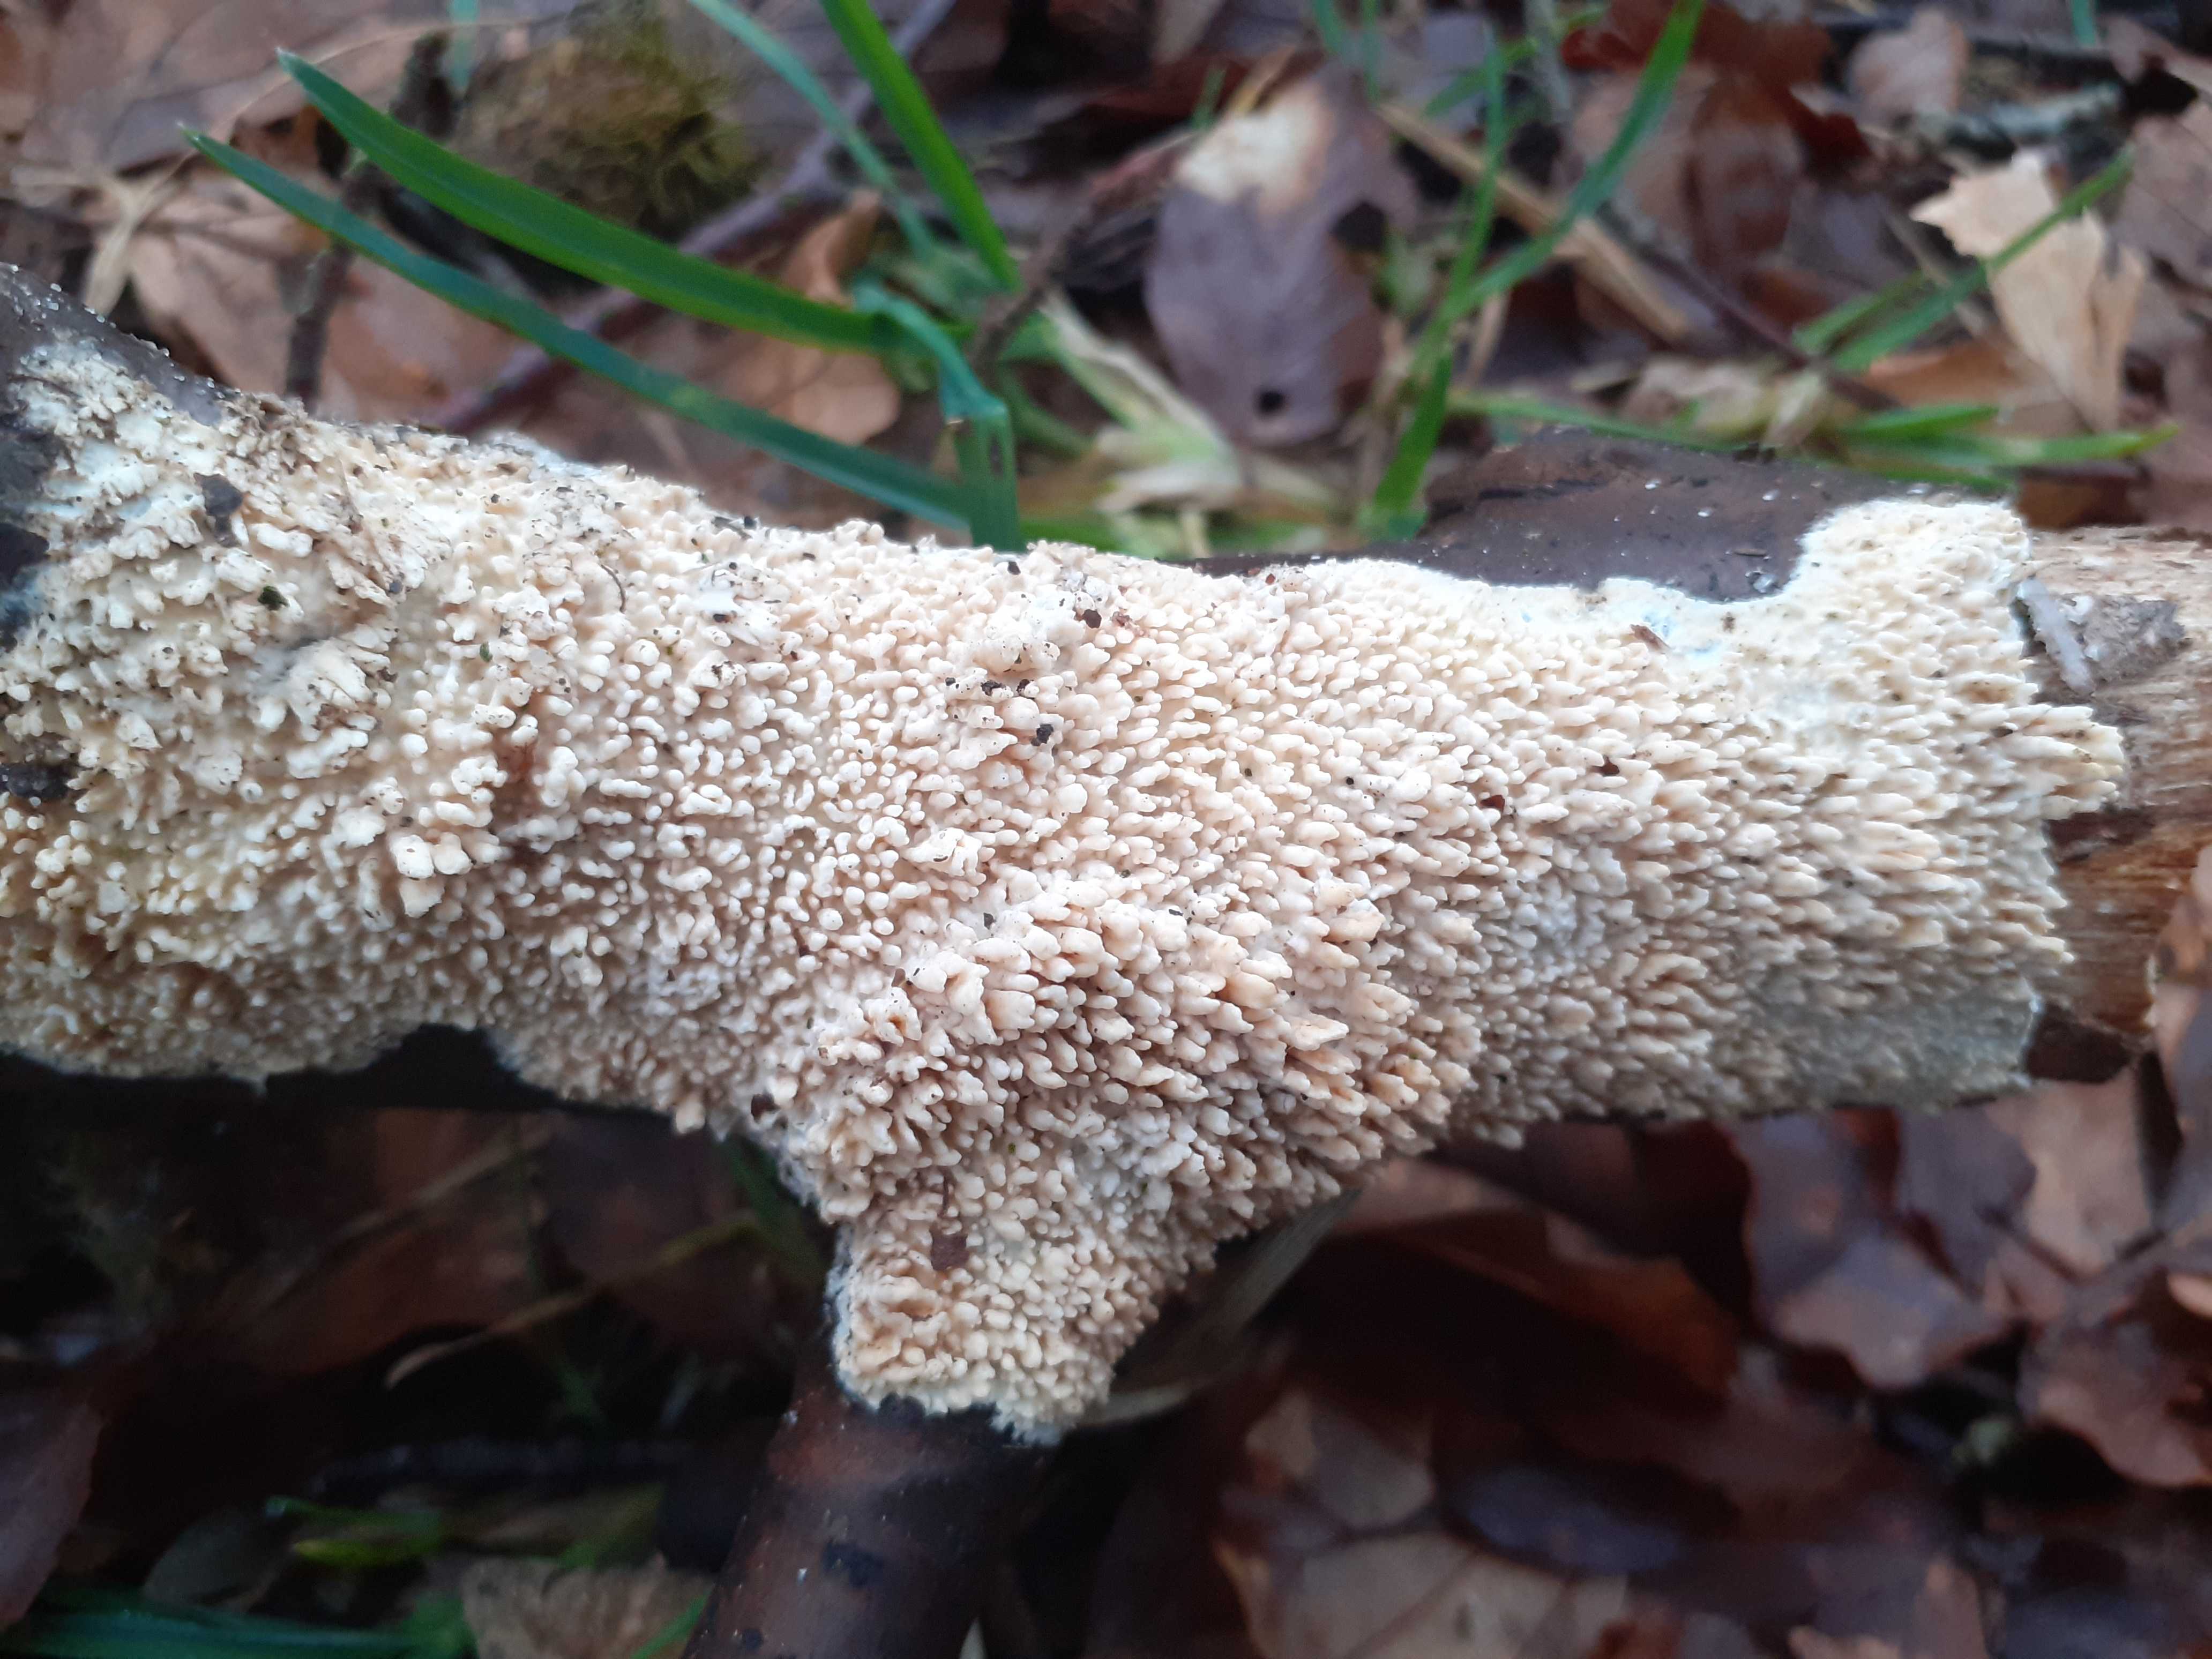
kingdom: Fungi
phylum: Basidiomycota
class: Agaricomycetes
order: Hymenochaetales
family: Schizoporaceae
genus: Xylodon
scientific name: Xylodon radula
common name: grovtandet kalkskind
